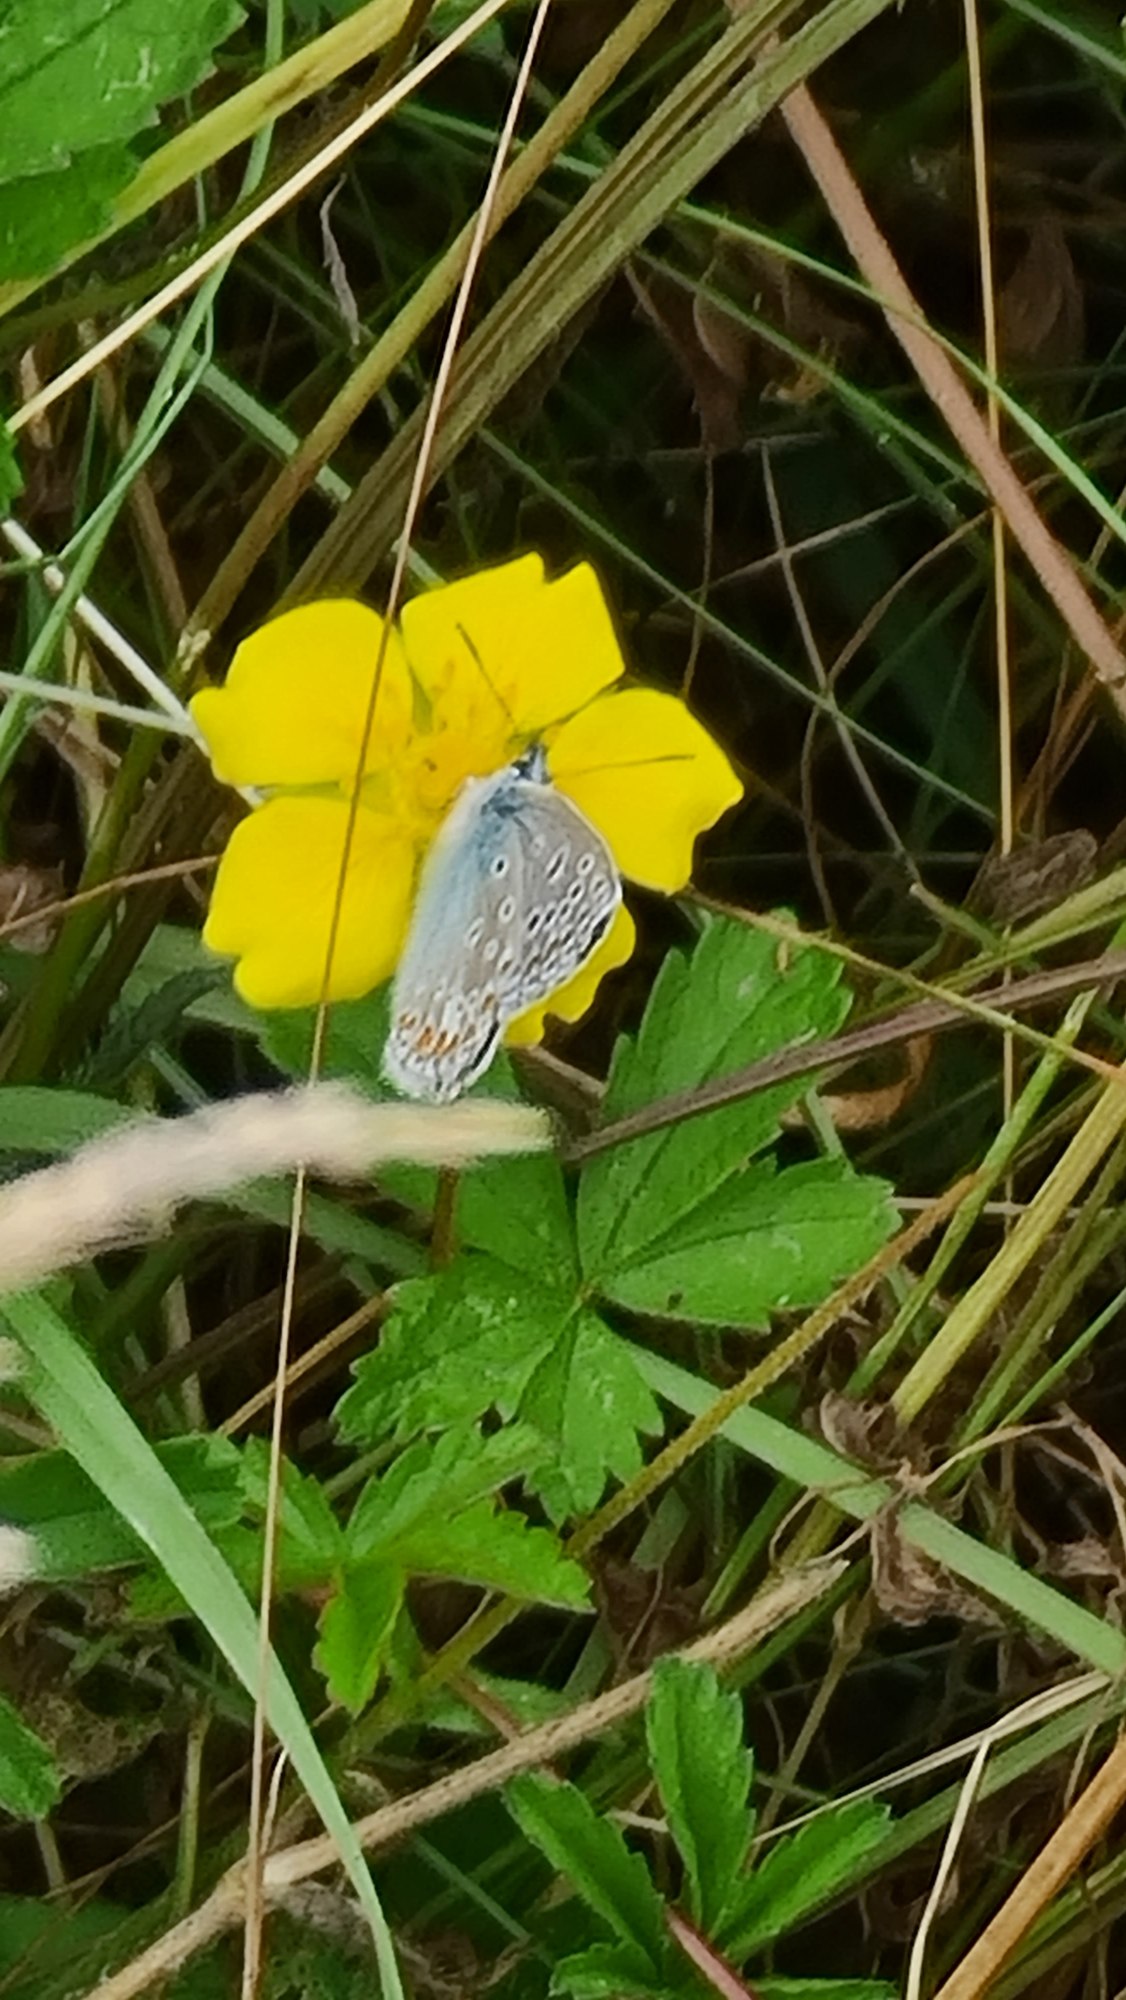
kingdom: Animalia
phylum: Arthropoda
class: Insecta
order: Lepidoptera
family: Lycaenidae
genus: Polyommatus
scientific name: Polyommatus icarus
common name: Almindelig blåfugl
